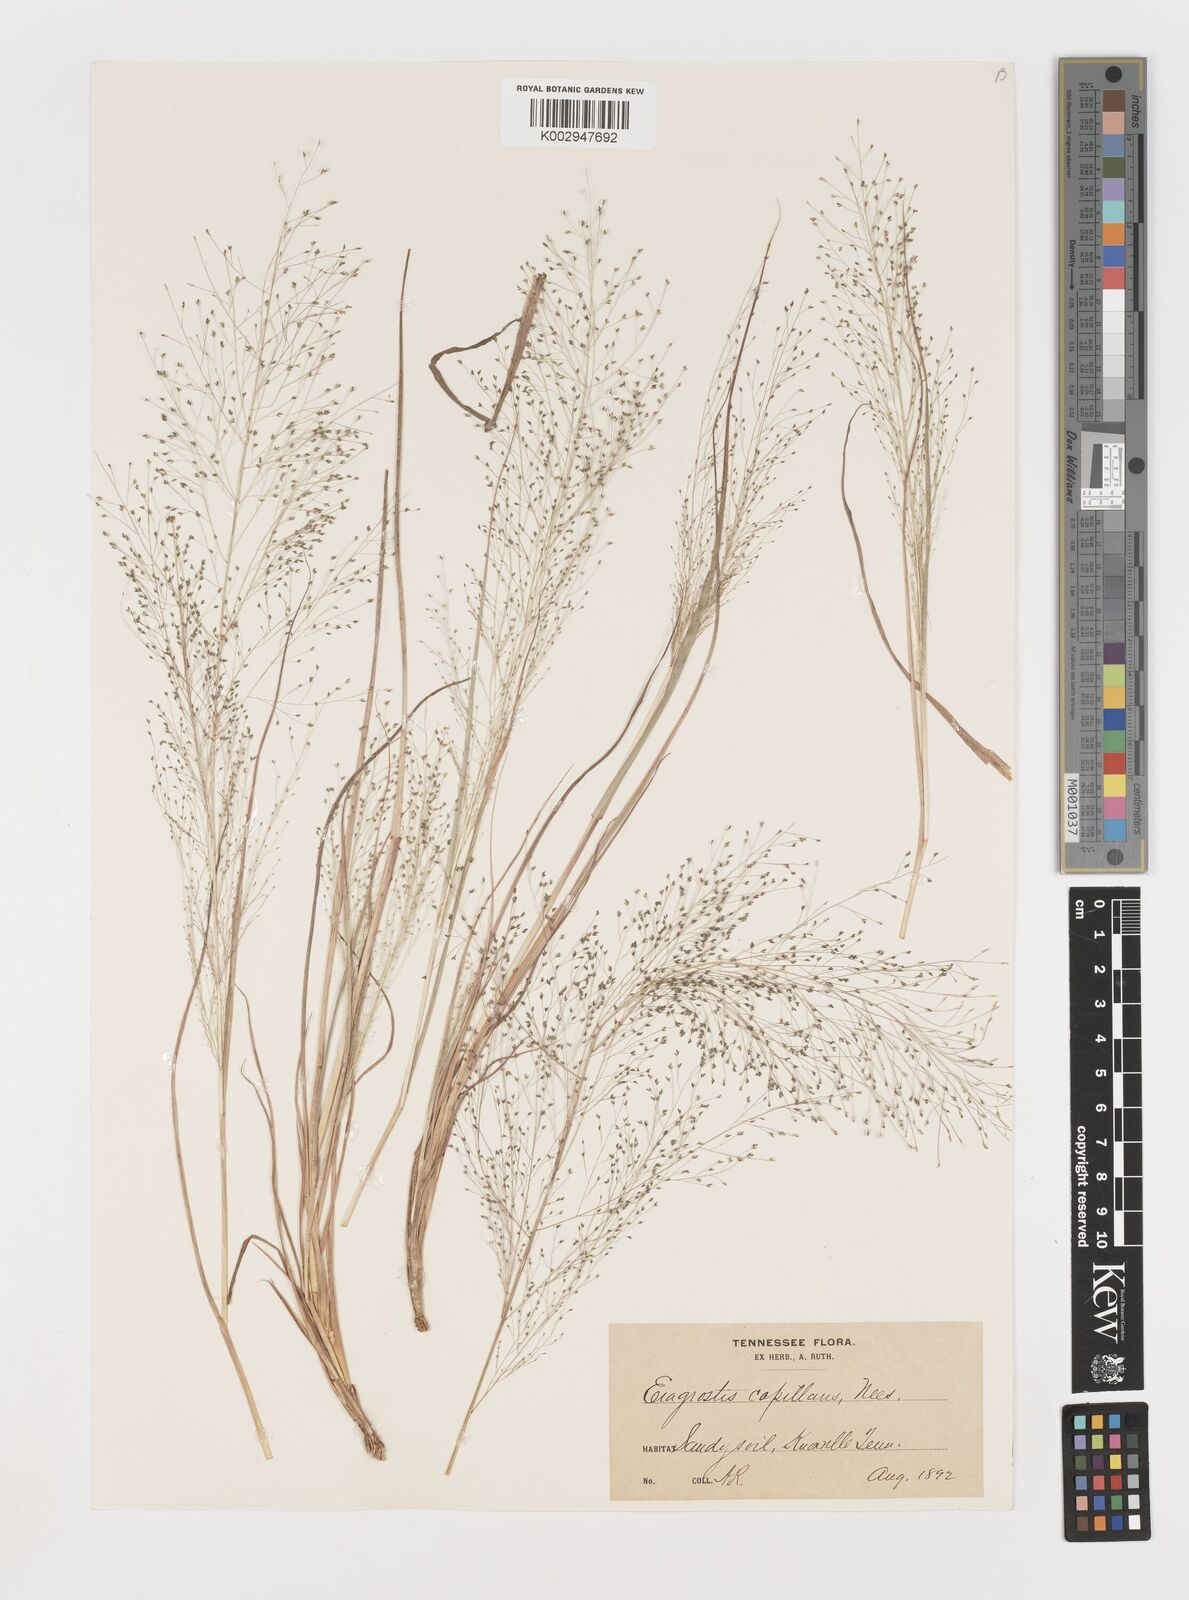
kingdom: Plantae
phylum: Tracheophyta
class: Liliopsida
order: Poales
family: Poaceae
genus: Eragrostis
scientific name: Eragrostis capillaris
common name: Hair-like lovegrass
